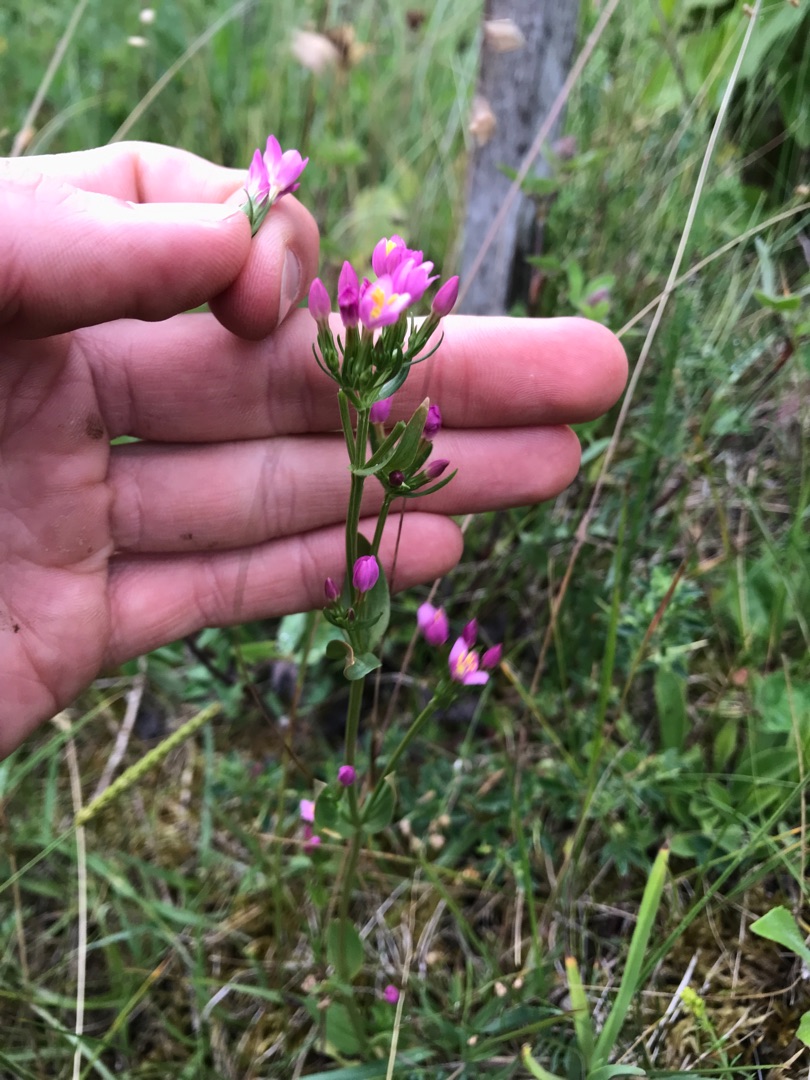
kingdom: Plantae
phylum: Tracheophyta
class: Magnoliopsida
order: Gentianales
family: Gentianaceae
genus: Centaurium
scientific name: Centaurium erythraea
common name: Mark-tusindgylden
